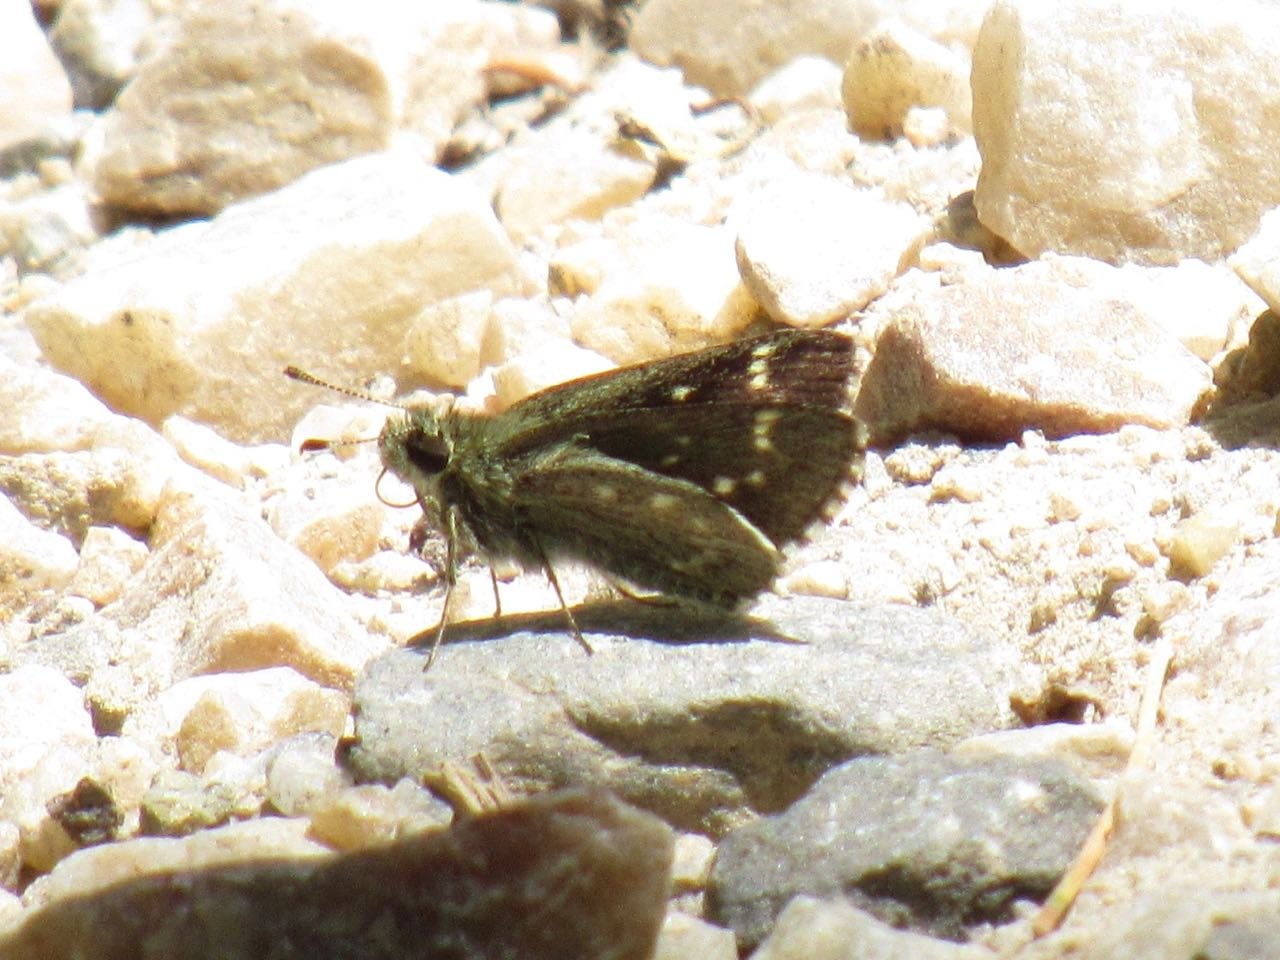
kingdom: Animalia
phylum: Arthropoda
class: Insecta
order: Lepidoptera
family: Hesperiidae
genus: Mastor
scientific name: Mastor hegon
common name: Pepper and Salt Skipper
